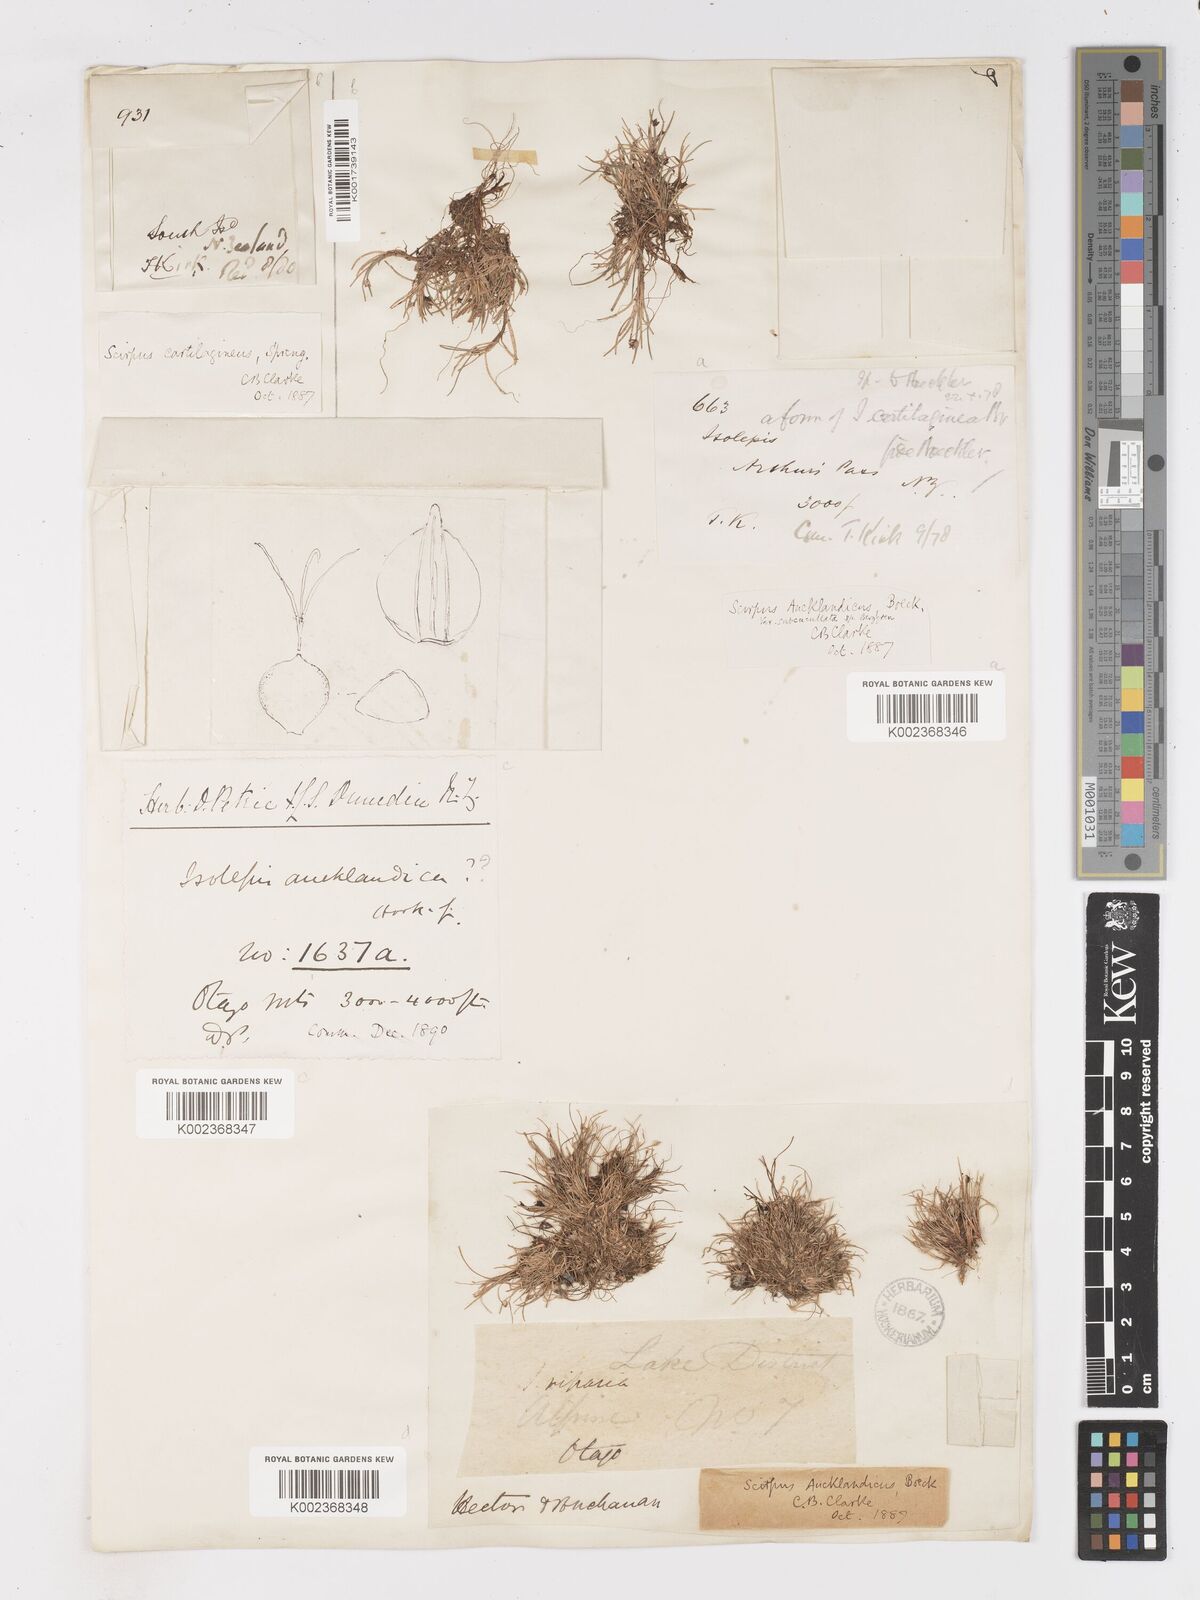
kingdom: Plantae
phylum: Tracheophyta
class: Liliopsida
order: Poales
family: Cyperaceae
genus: Isolepis
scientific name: Isolepis aucklandica
